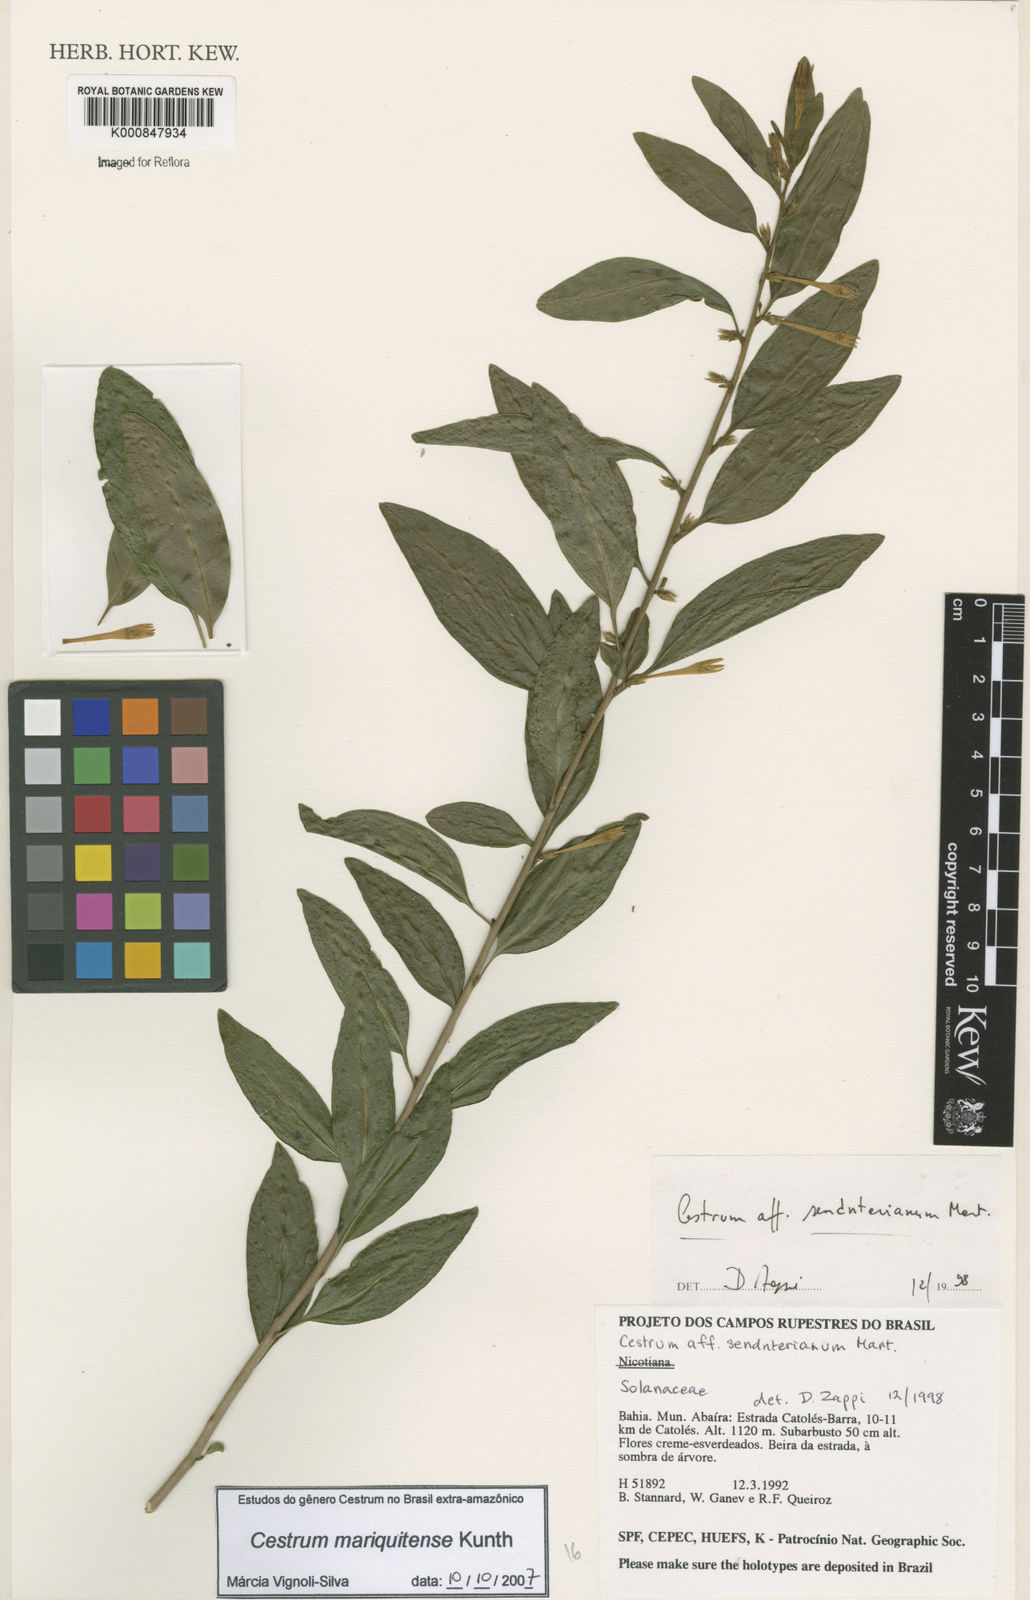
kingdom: Plantae
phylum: Tracheophyta
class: Magnoliopsida
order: Solanales
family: Solanaceae
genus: Cestrum
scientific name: Cestrum mariquitense
